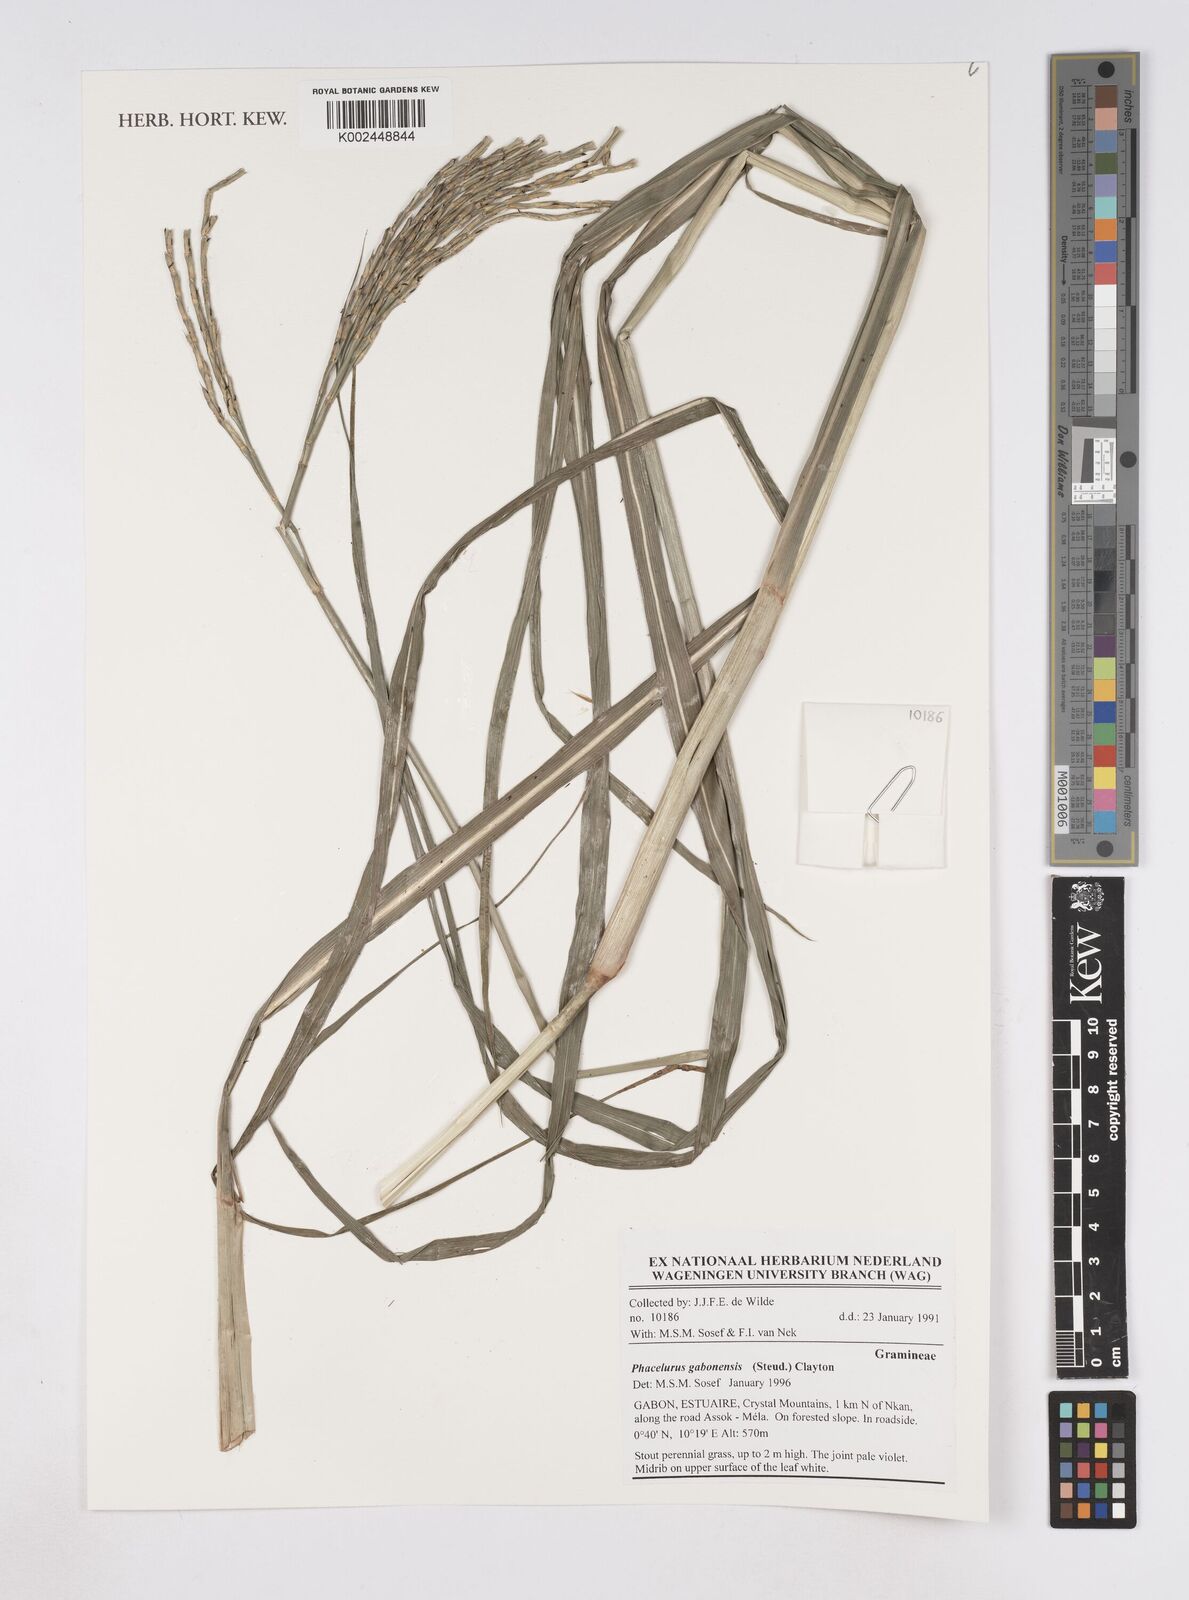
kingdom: Plantae
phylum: Tracheophyta
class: Liliopsida
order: Poales
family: Poaceae
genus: Phacelurus
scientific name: Phacelurus gabonensis
